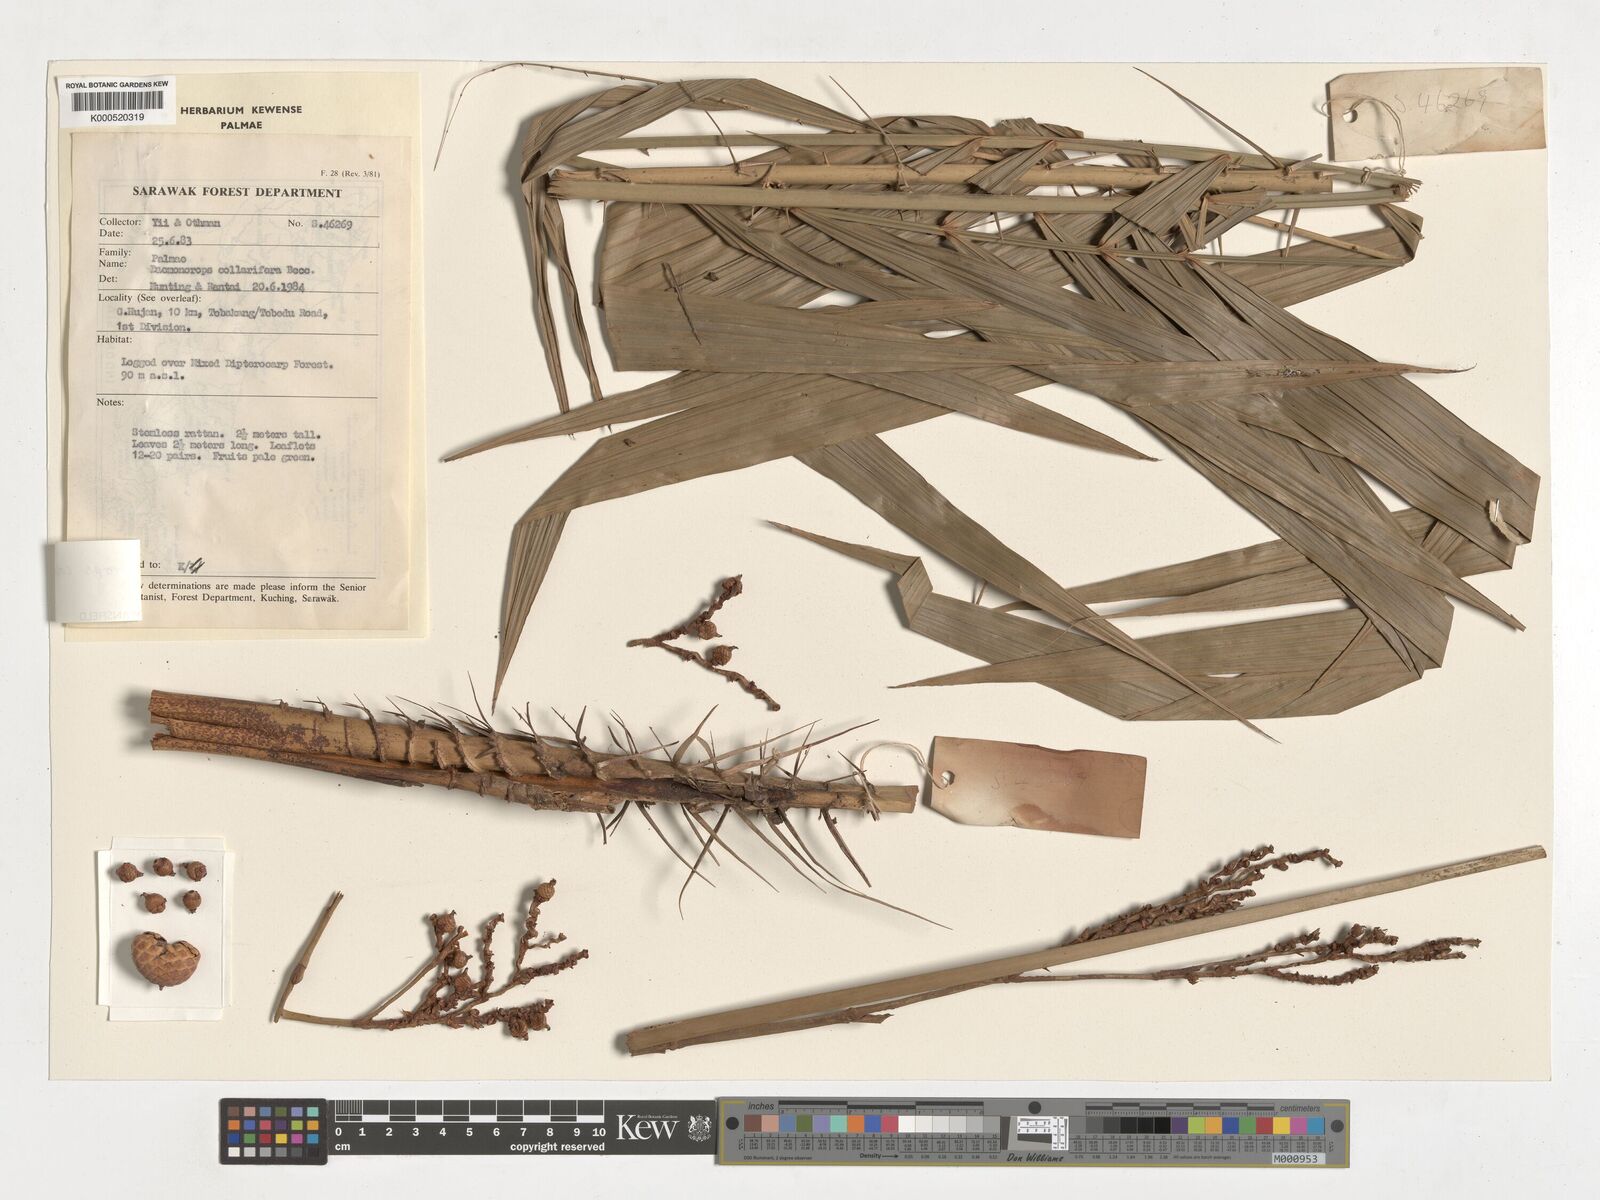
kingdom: Plantae
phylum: Tracheophyta
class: Liliopsida
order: Arecales
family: Arecaceae
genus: Calamus
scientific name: Calamus geniculatus
